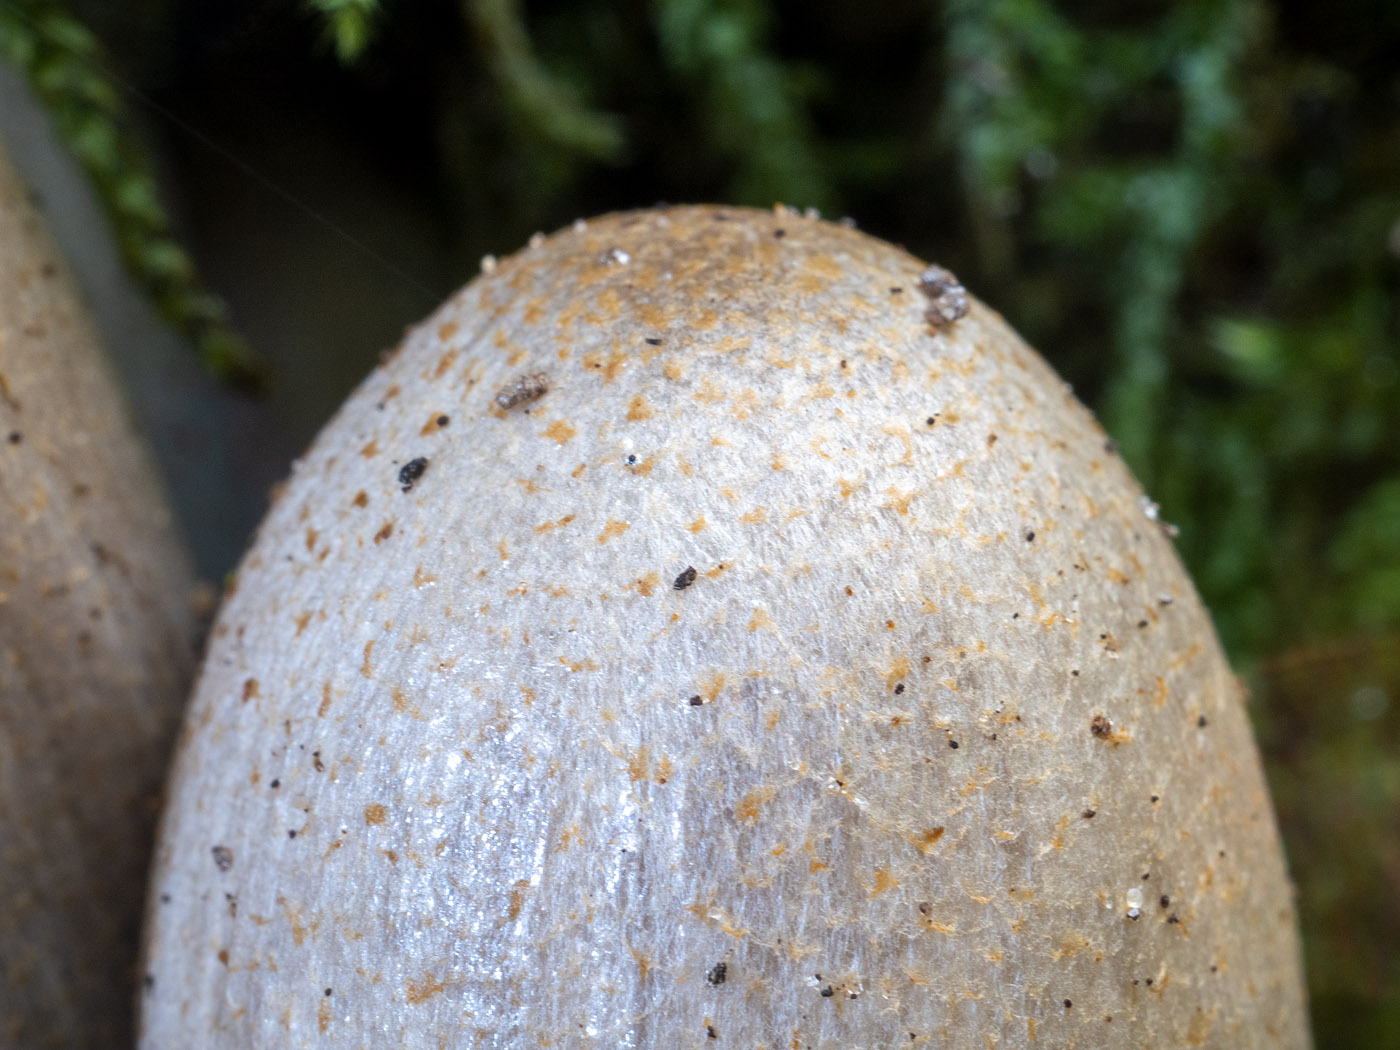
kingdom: Fungi
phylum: Basidiomycota
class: Agaricomycetes
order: Agaricales
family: Psathyrellaceae
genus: Coprinopsis
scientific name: Coprinopsis romagnesiana
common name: brunskællet blækhat
